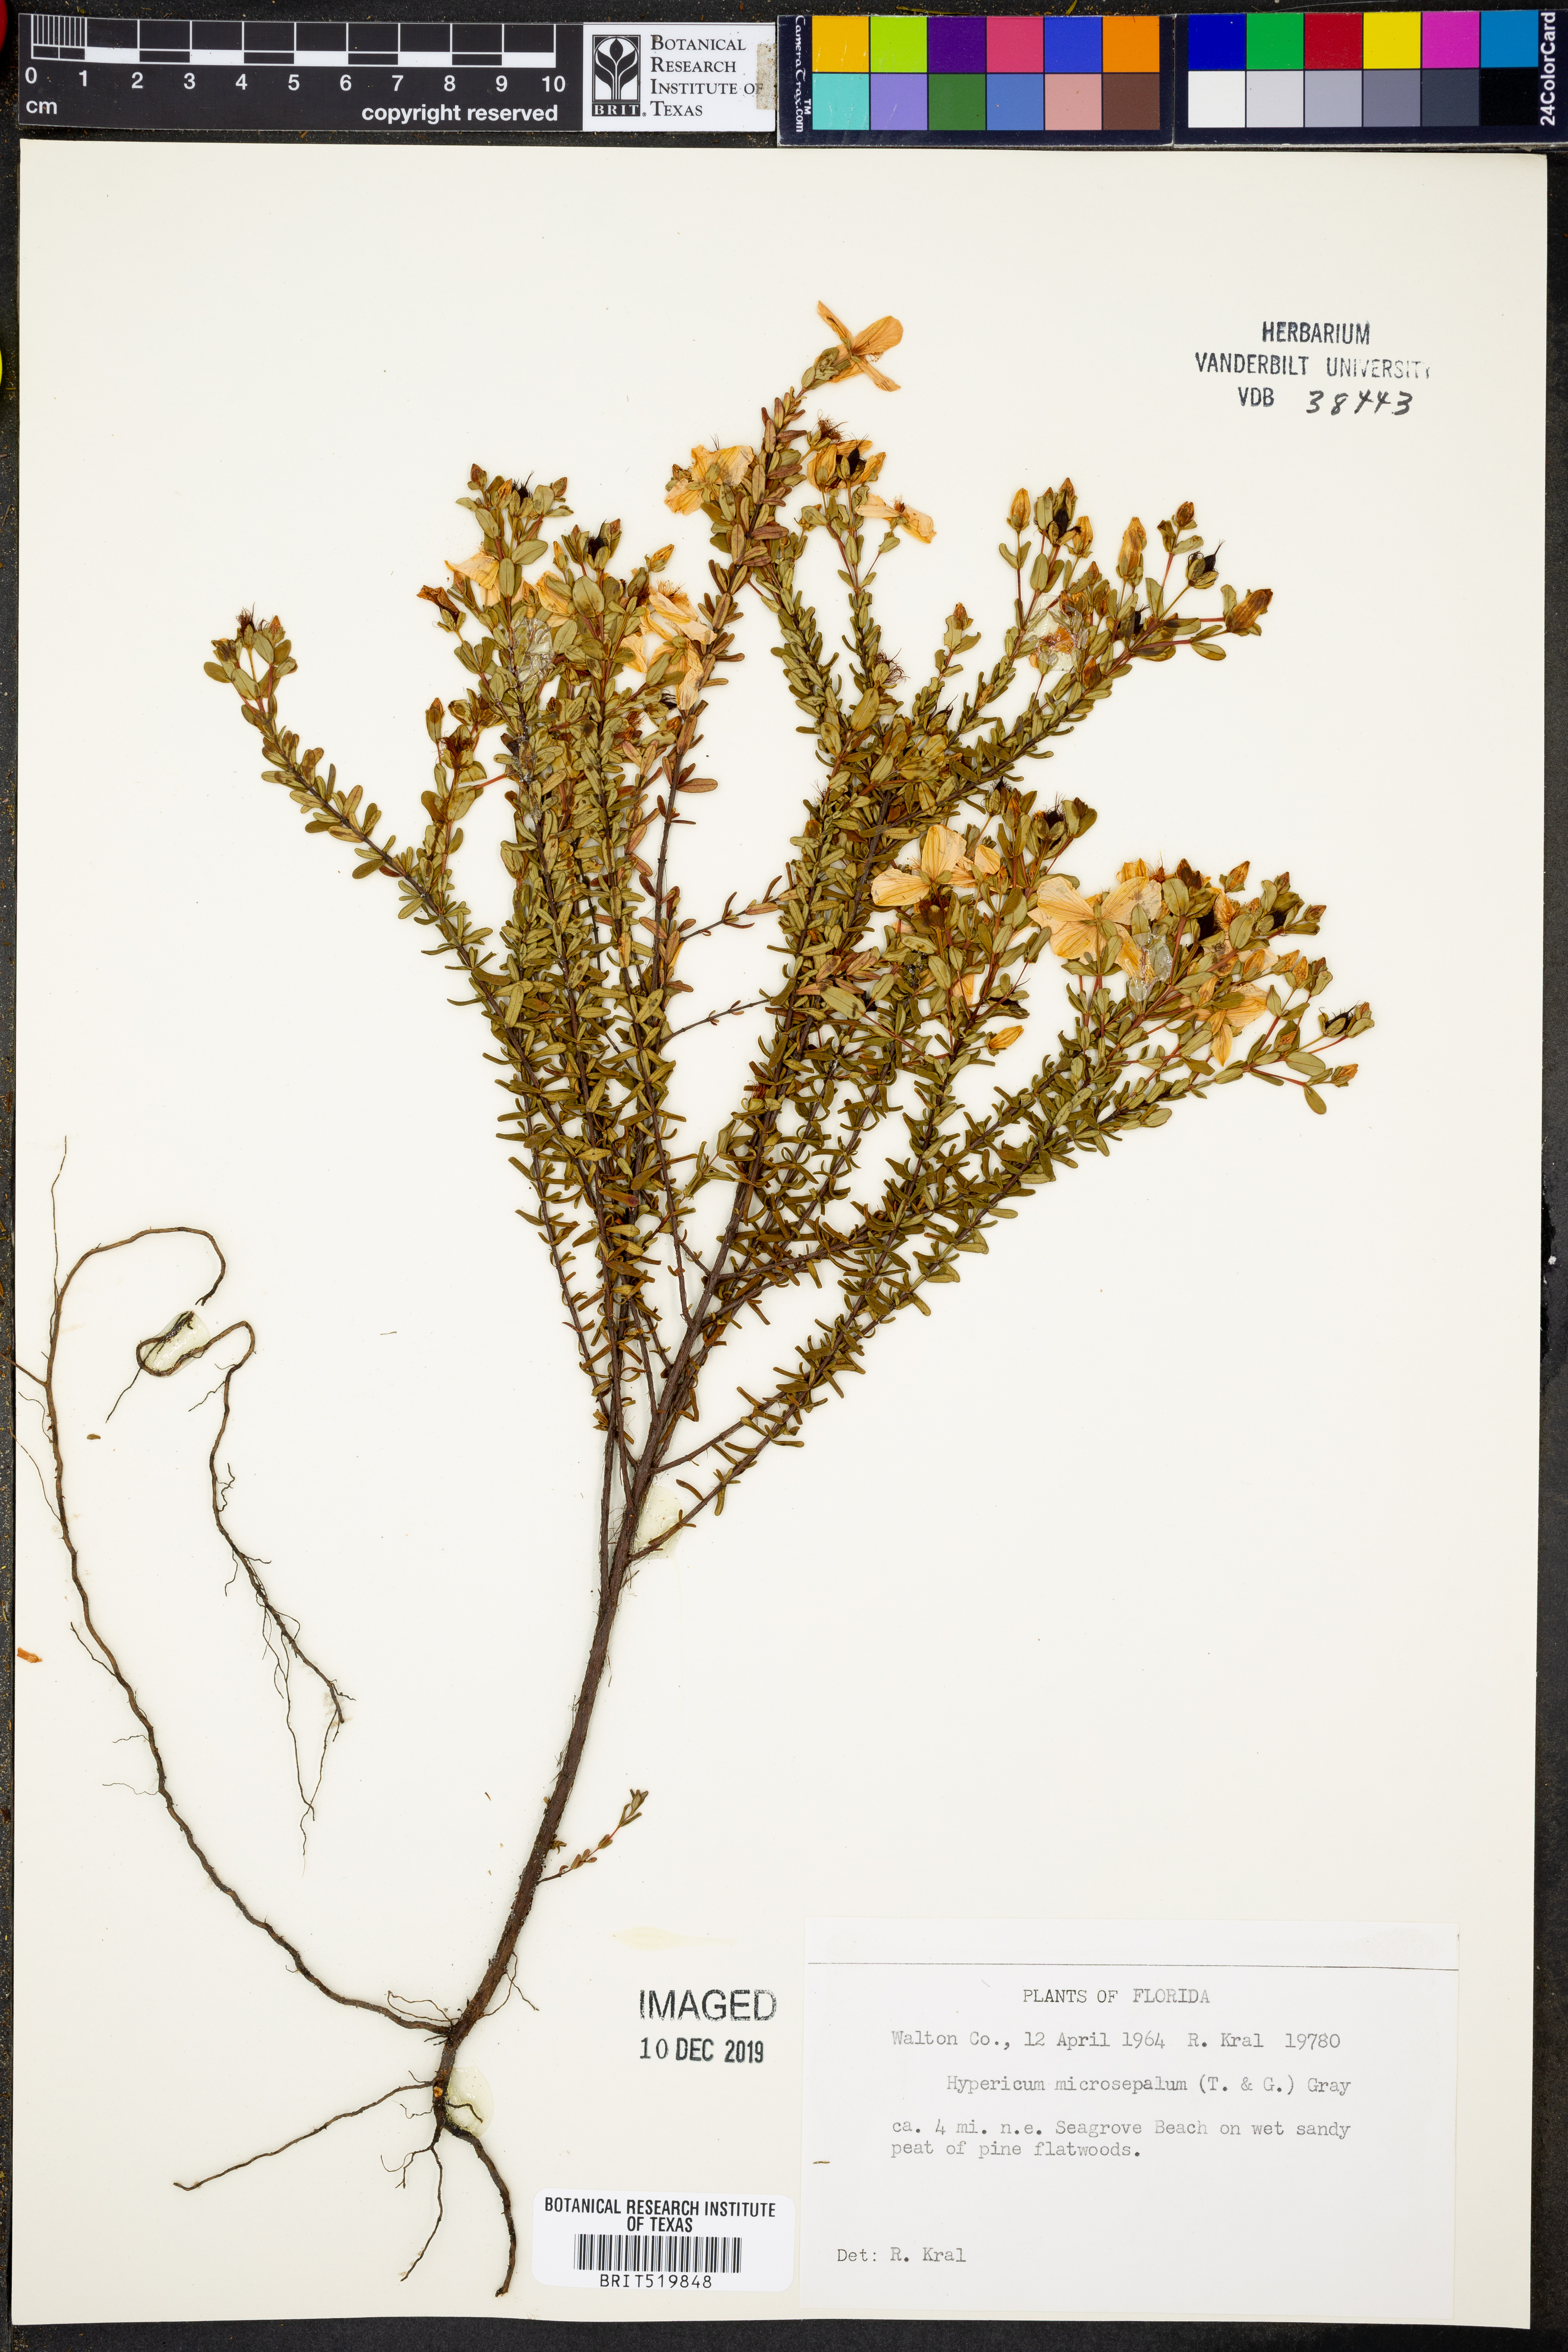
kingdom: Plantae
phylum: Tracheophyta
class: Magnoliopsida
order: Malpighiales
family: Hypericaceae
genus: Hypericum
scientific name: Hypericum microsepalum
